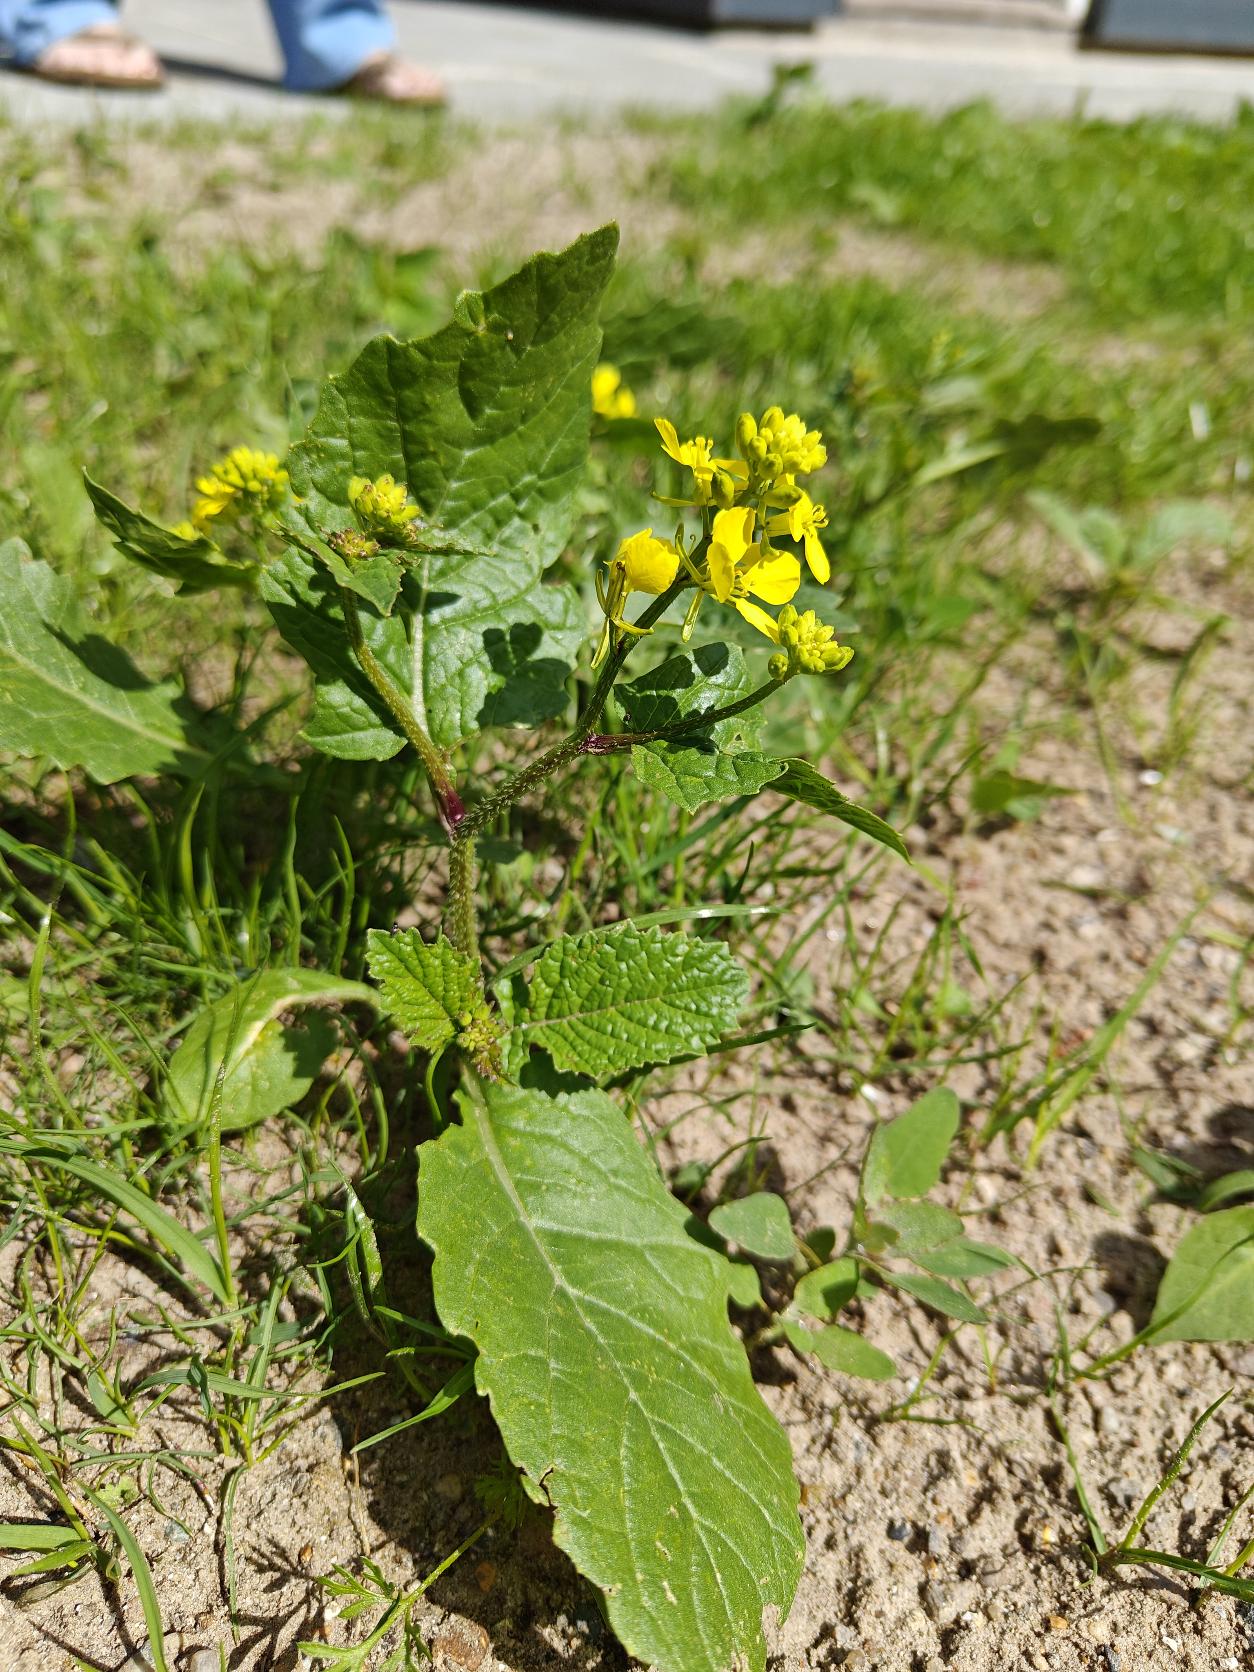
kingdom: Plantae
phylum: Tracheophyta
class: Magnoliopsida
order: Brassicales
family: Brassicaceae
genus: Sinapis
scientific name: Sinapis arvensis
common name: Ager-sennep
